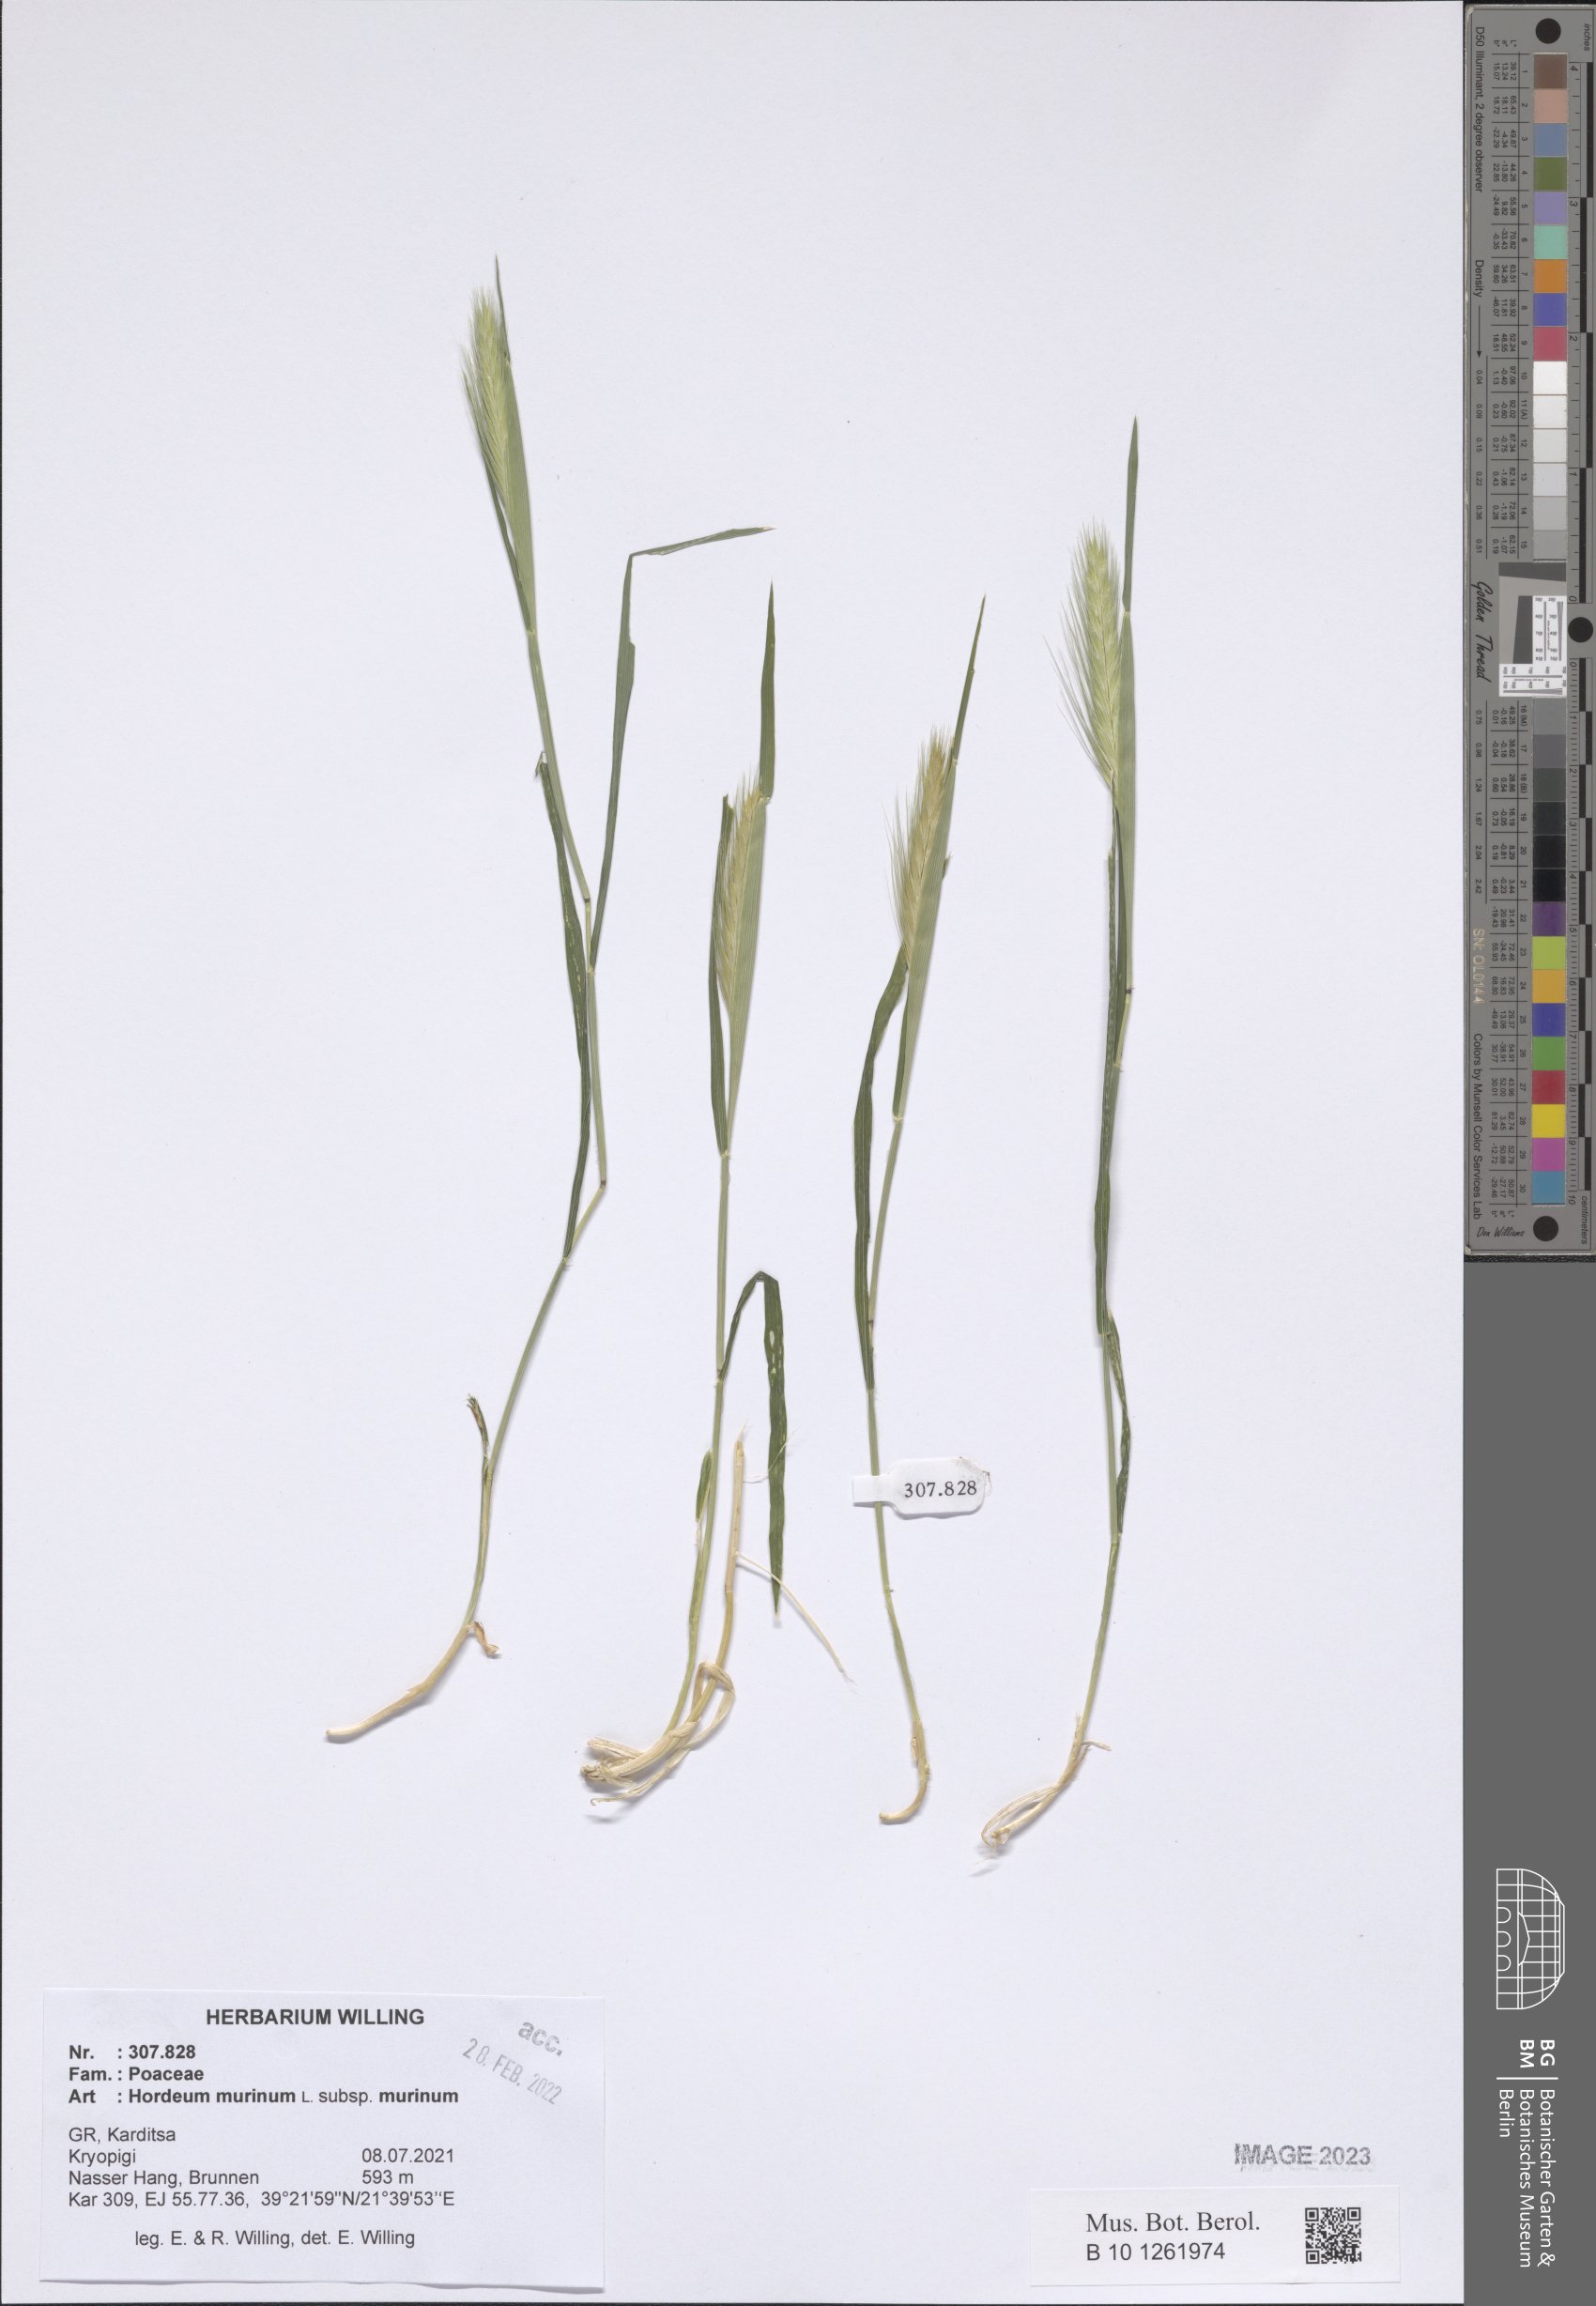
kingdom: Plantae
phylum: Tracheophyta
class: Liliopsida
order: Poales
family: Poaceae
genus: Hordeum
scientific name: Hordeum murinum
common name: Wall barley
